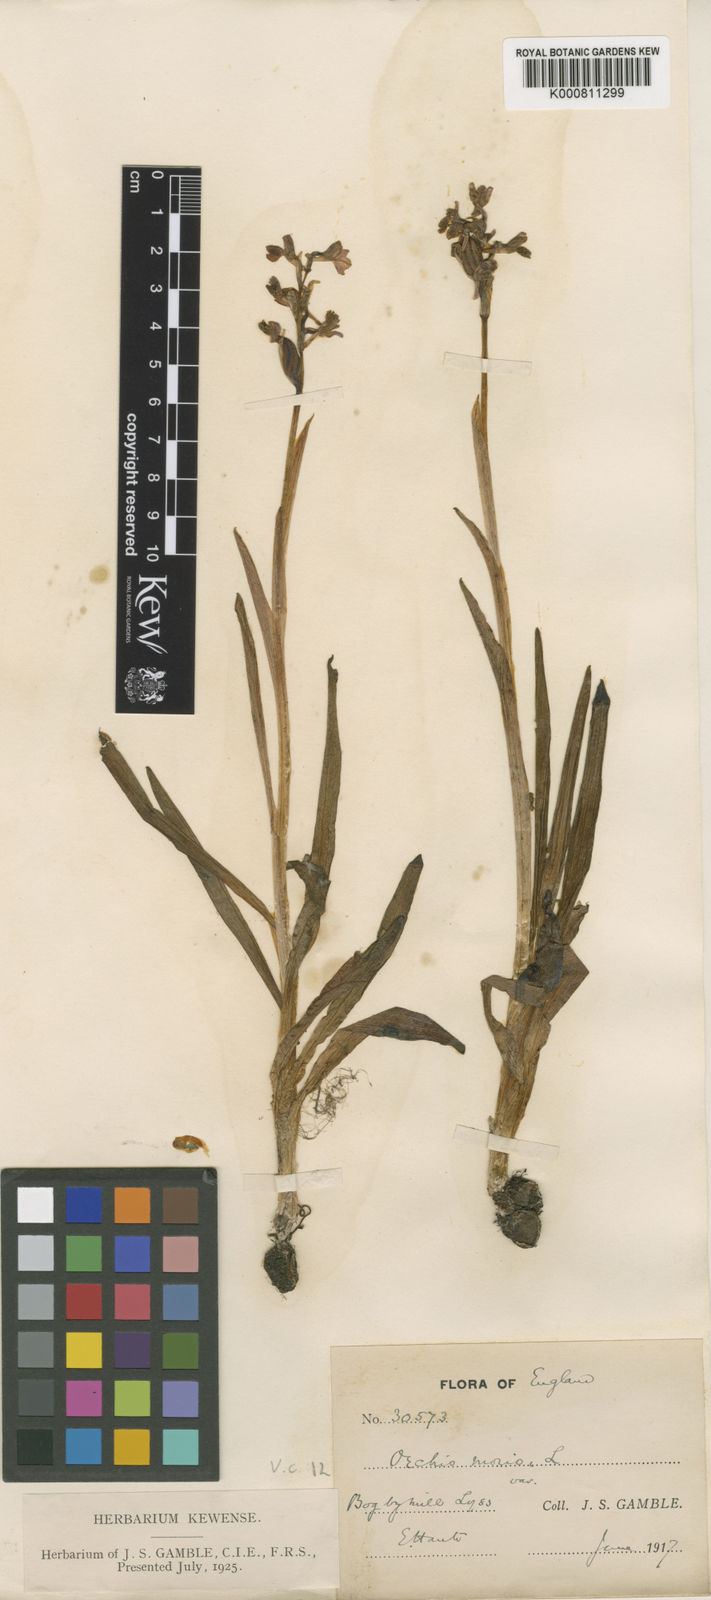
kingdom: Plantae
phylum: Tracheophyta
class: Liliopsida
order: Asparagales
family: Orchidaceae
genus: Anacamptis
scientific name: Anacamptis morio
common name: Green-winged orchid
